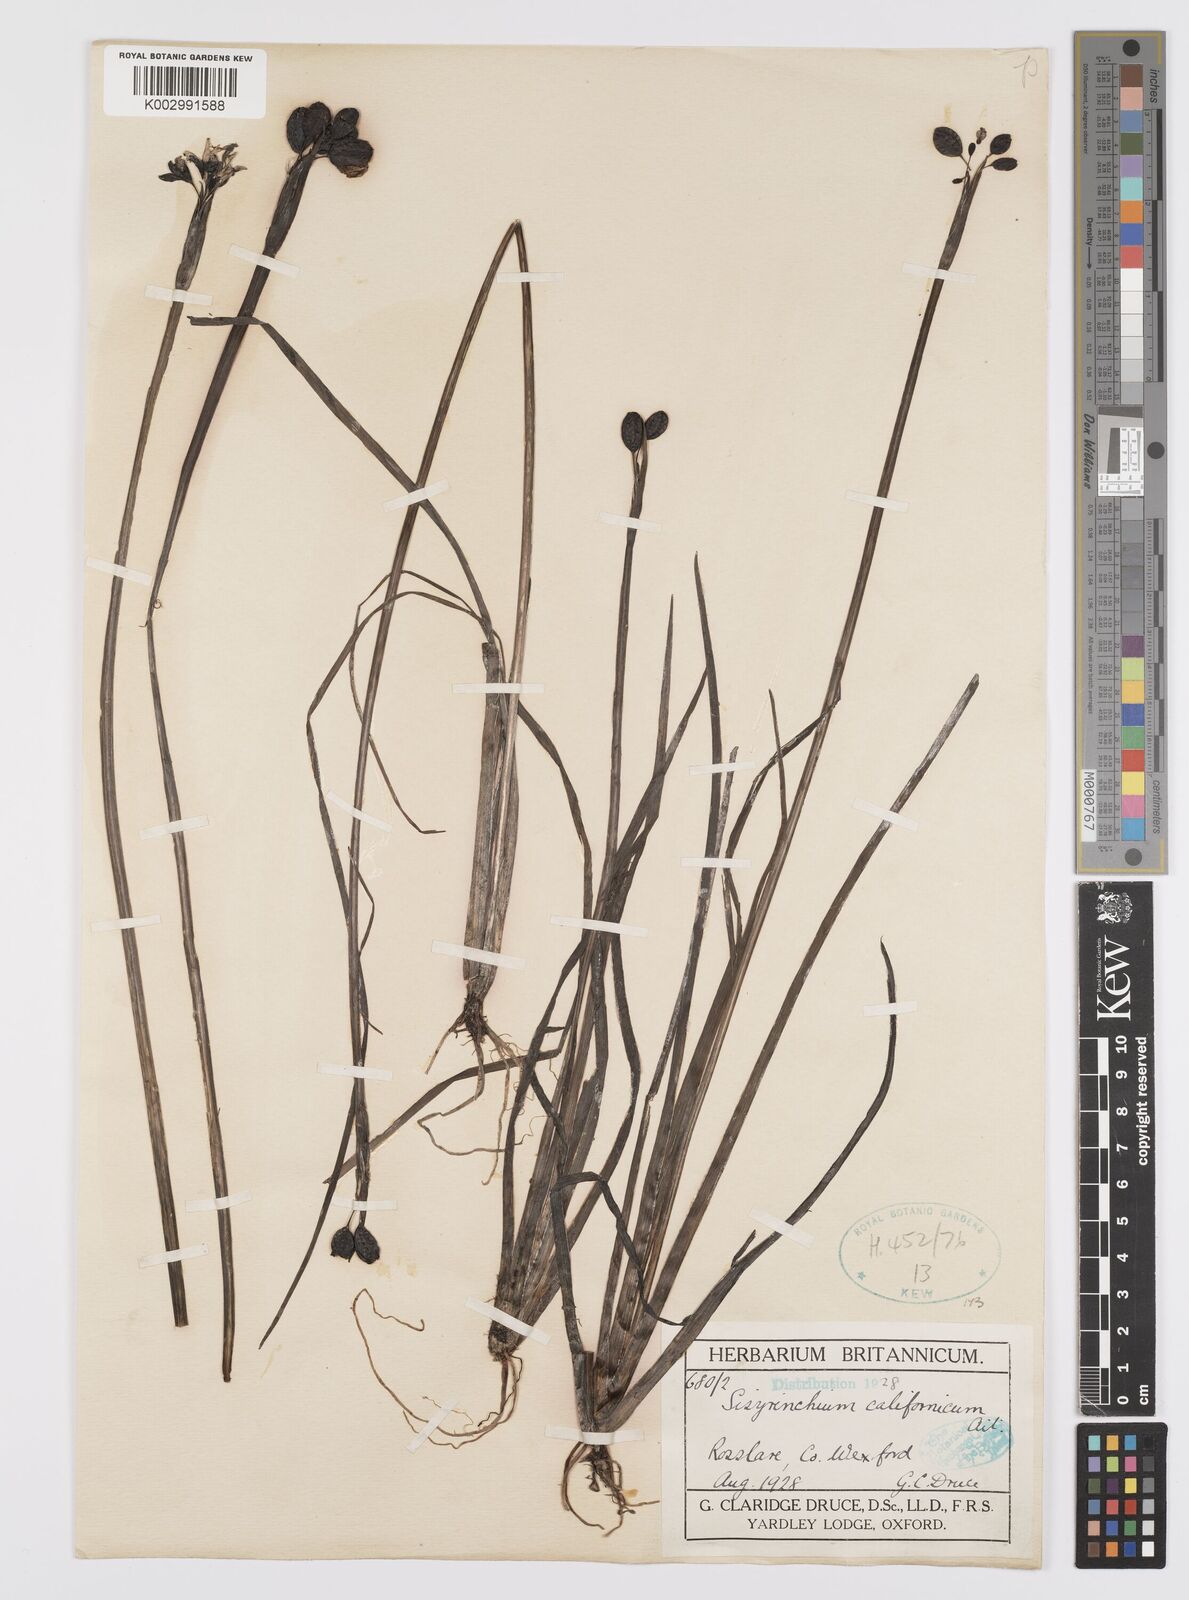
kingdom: Plantae
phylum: Tracheophyta
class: Liliopsida
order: Asparagales
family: Iridaceae
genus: Sisyrinchium
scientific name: Sisyrinchium californicum
